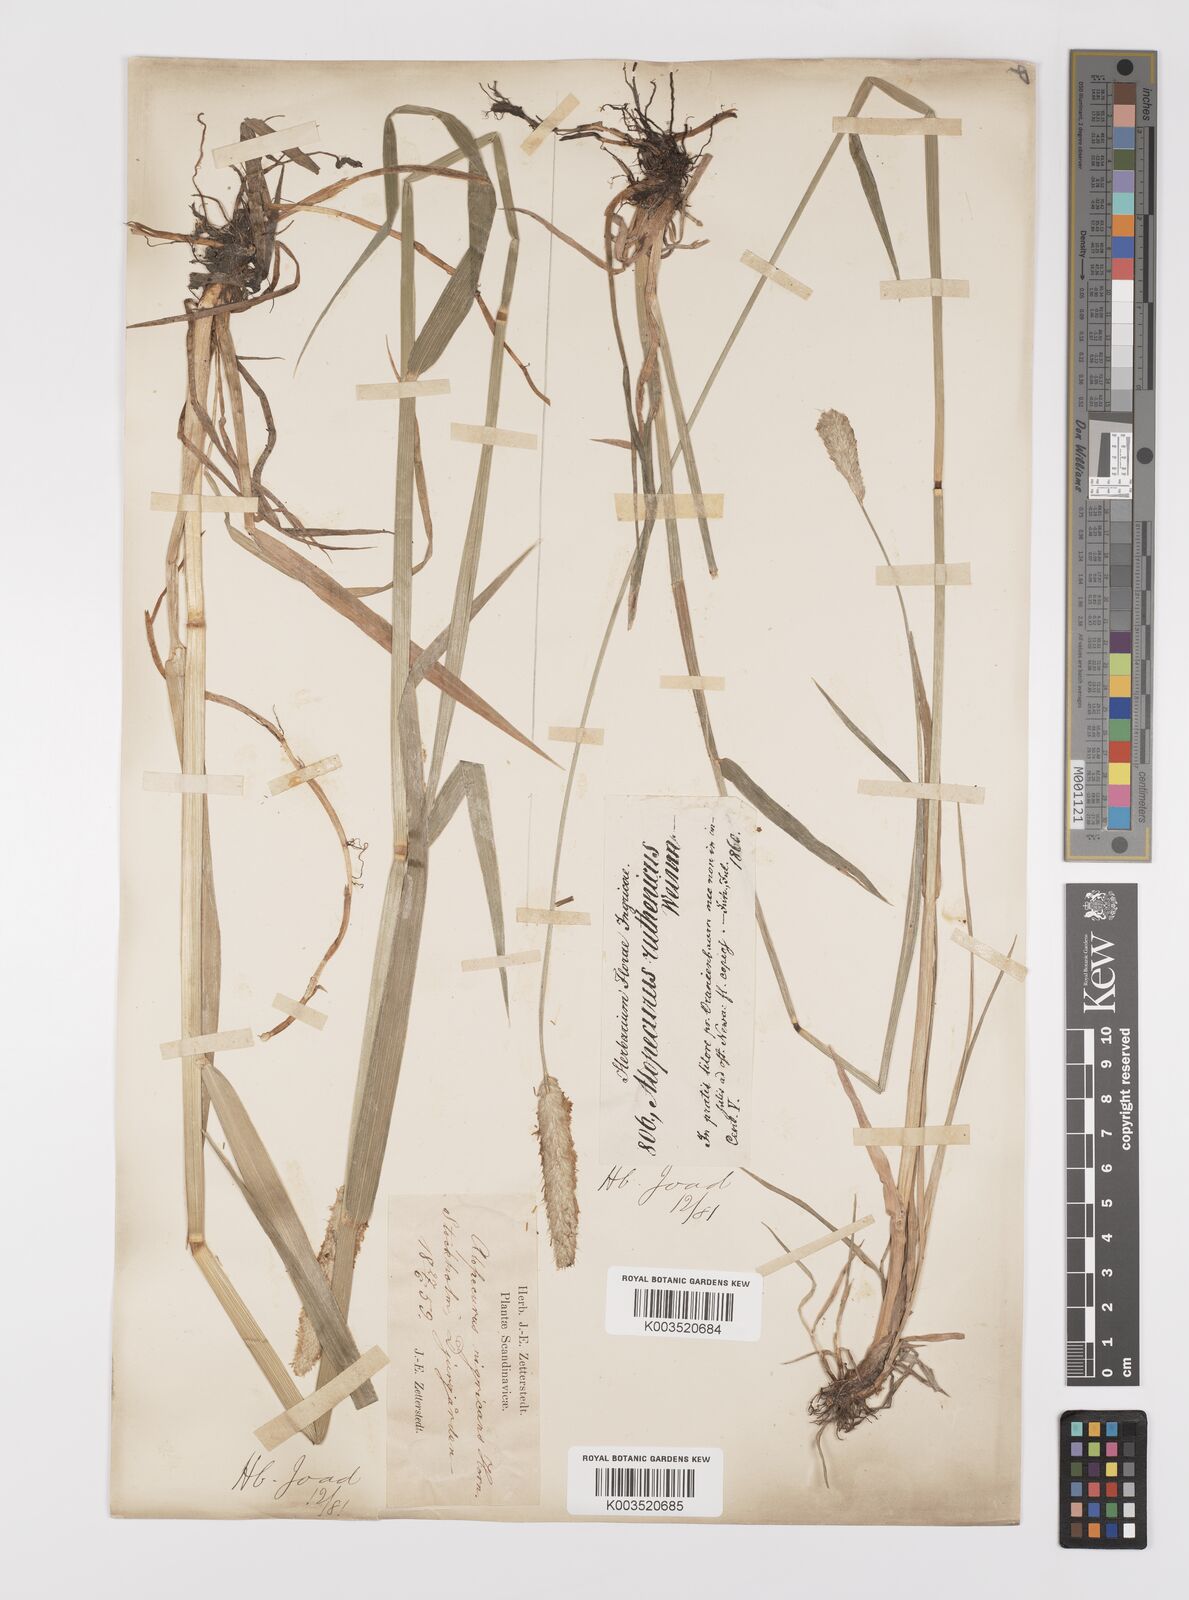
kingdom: Plantae
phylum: Tracheophyta
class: Liliopsida
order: Poales
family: Poaceae
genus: Alopecurus
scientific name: Alopecurus arundinaceus
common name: Creeping meadow foxtail
